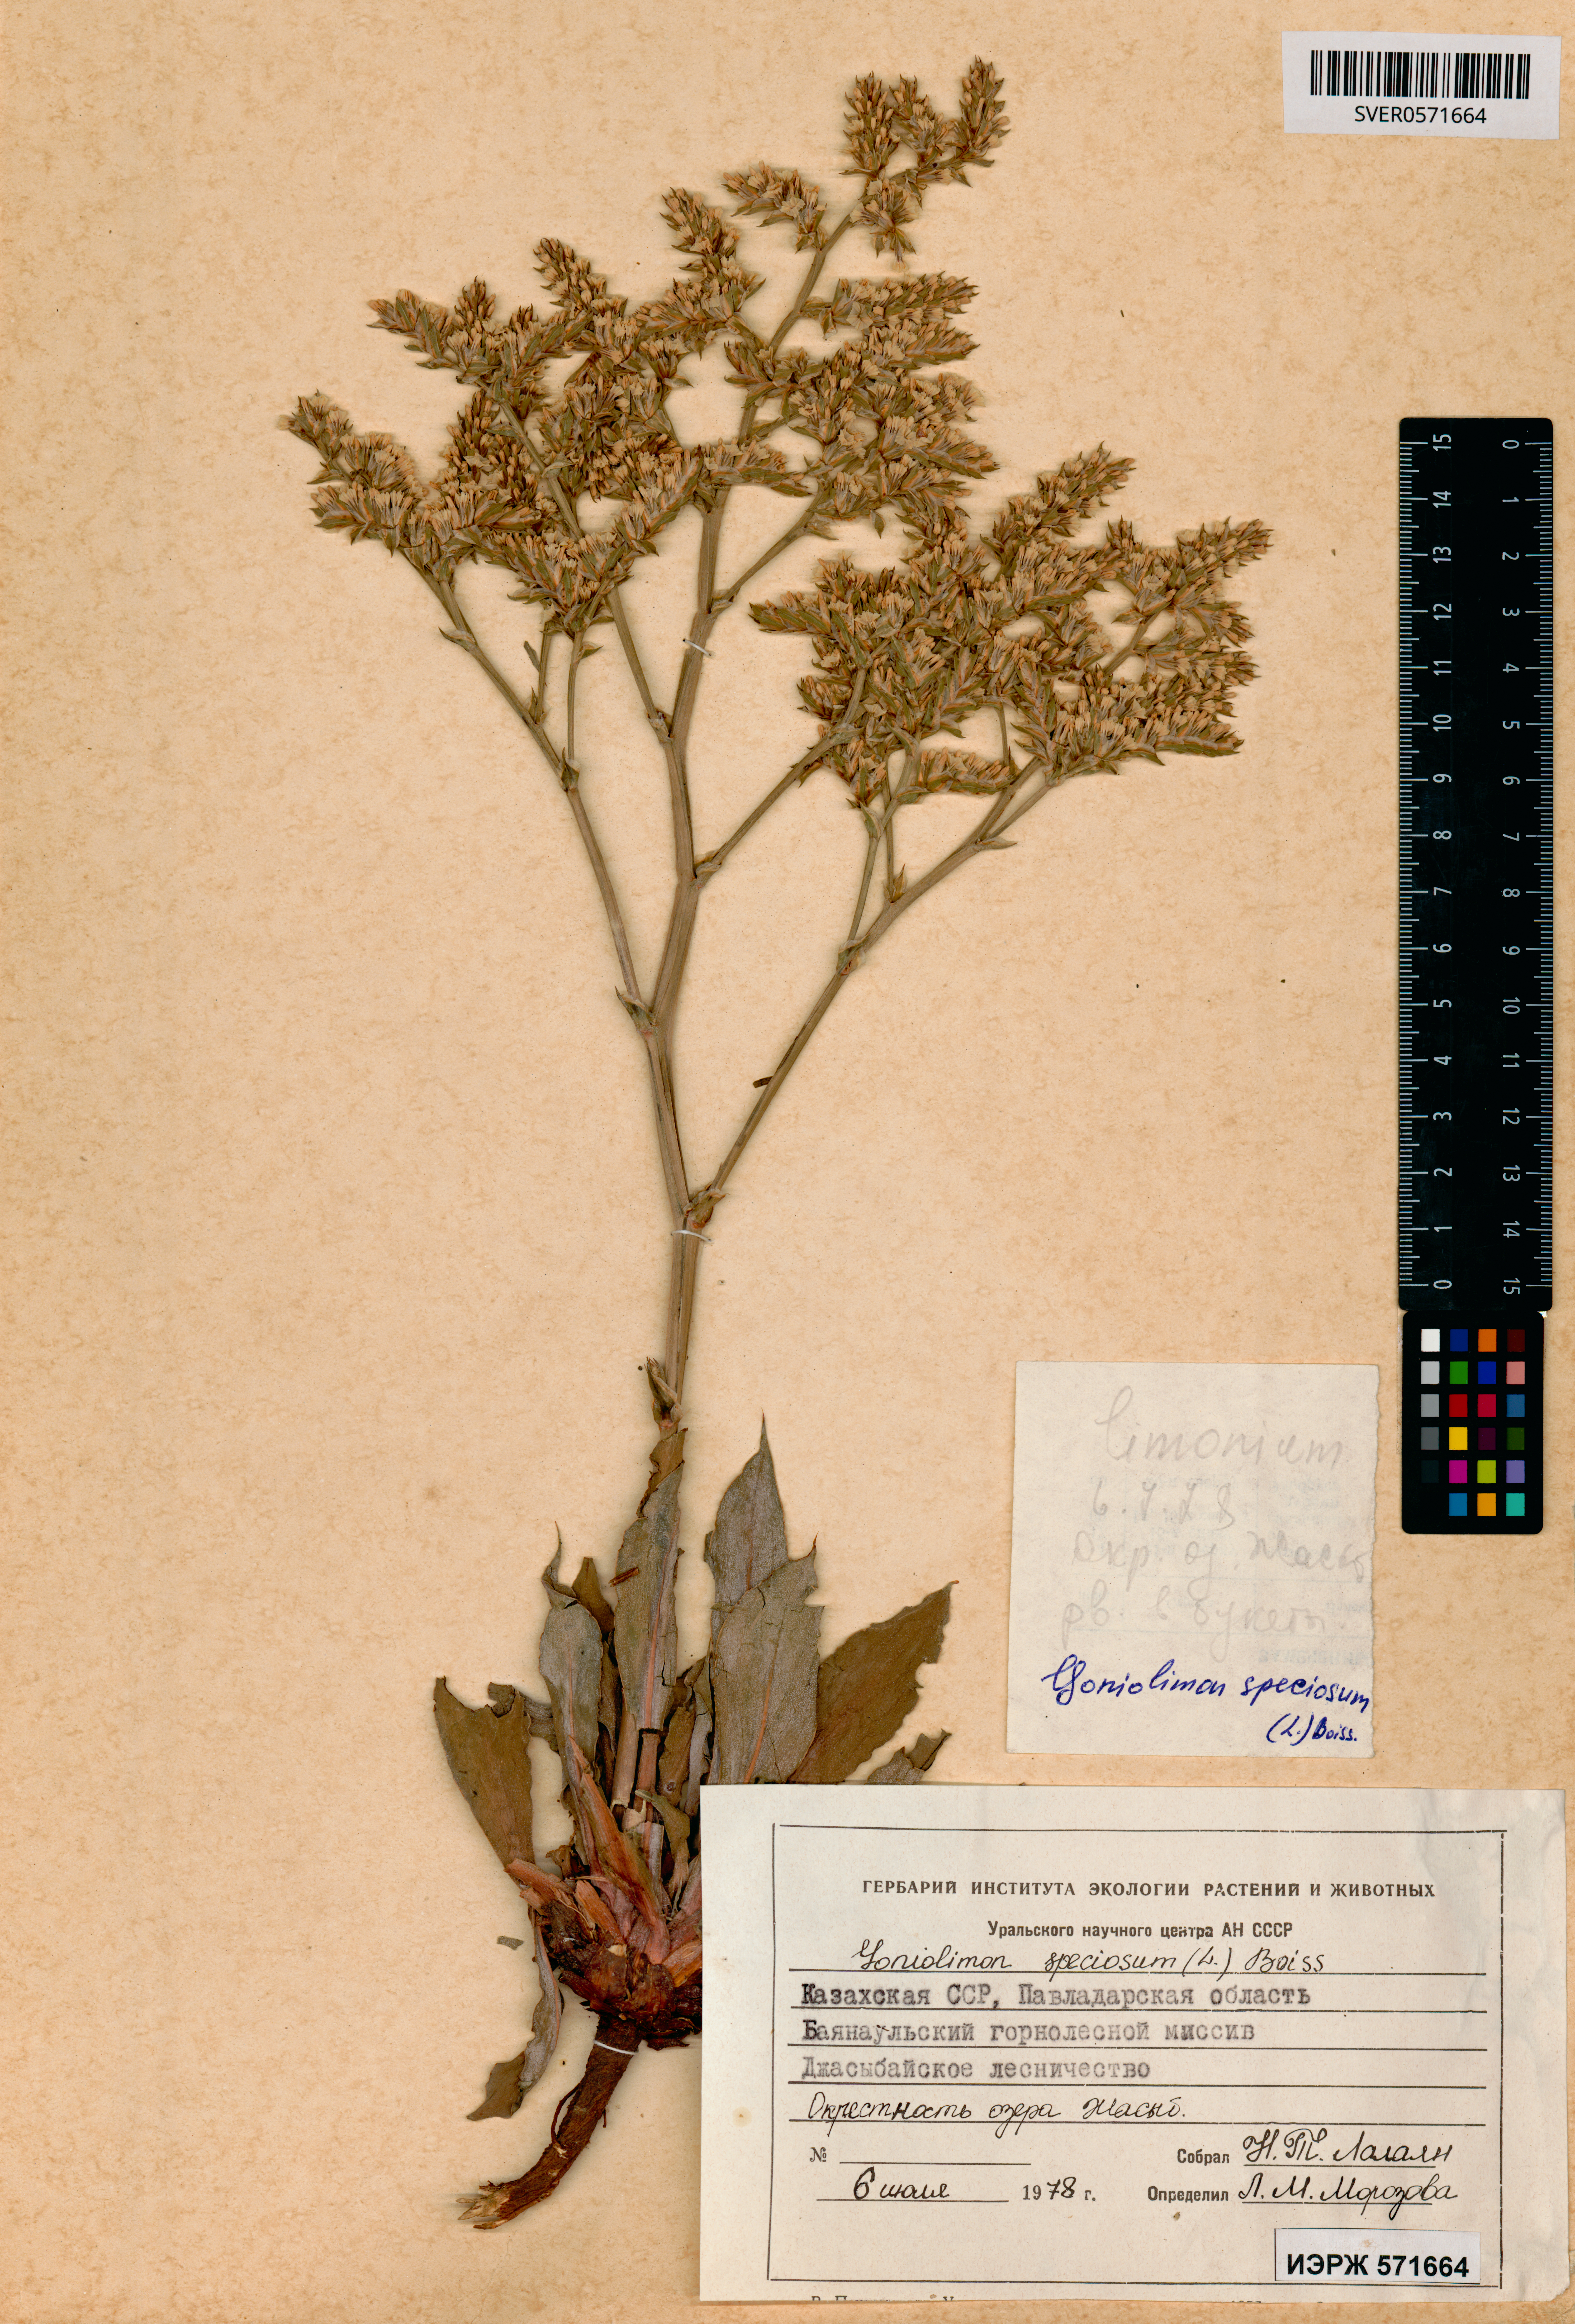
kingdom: Plantae
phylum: Tracheophyta
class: Magnoliopsida
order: Caryophyllales
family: Plumbaginaceae
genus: Goniolimon
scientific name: Goniolimon speciosum
